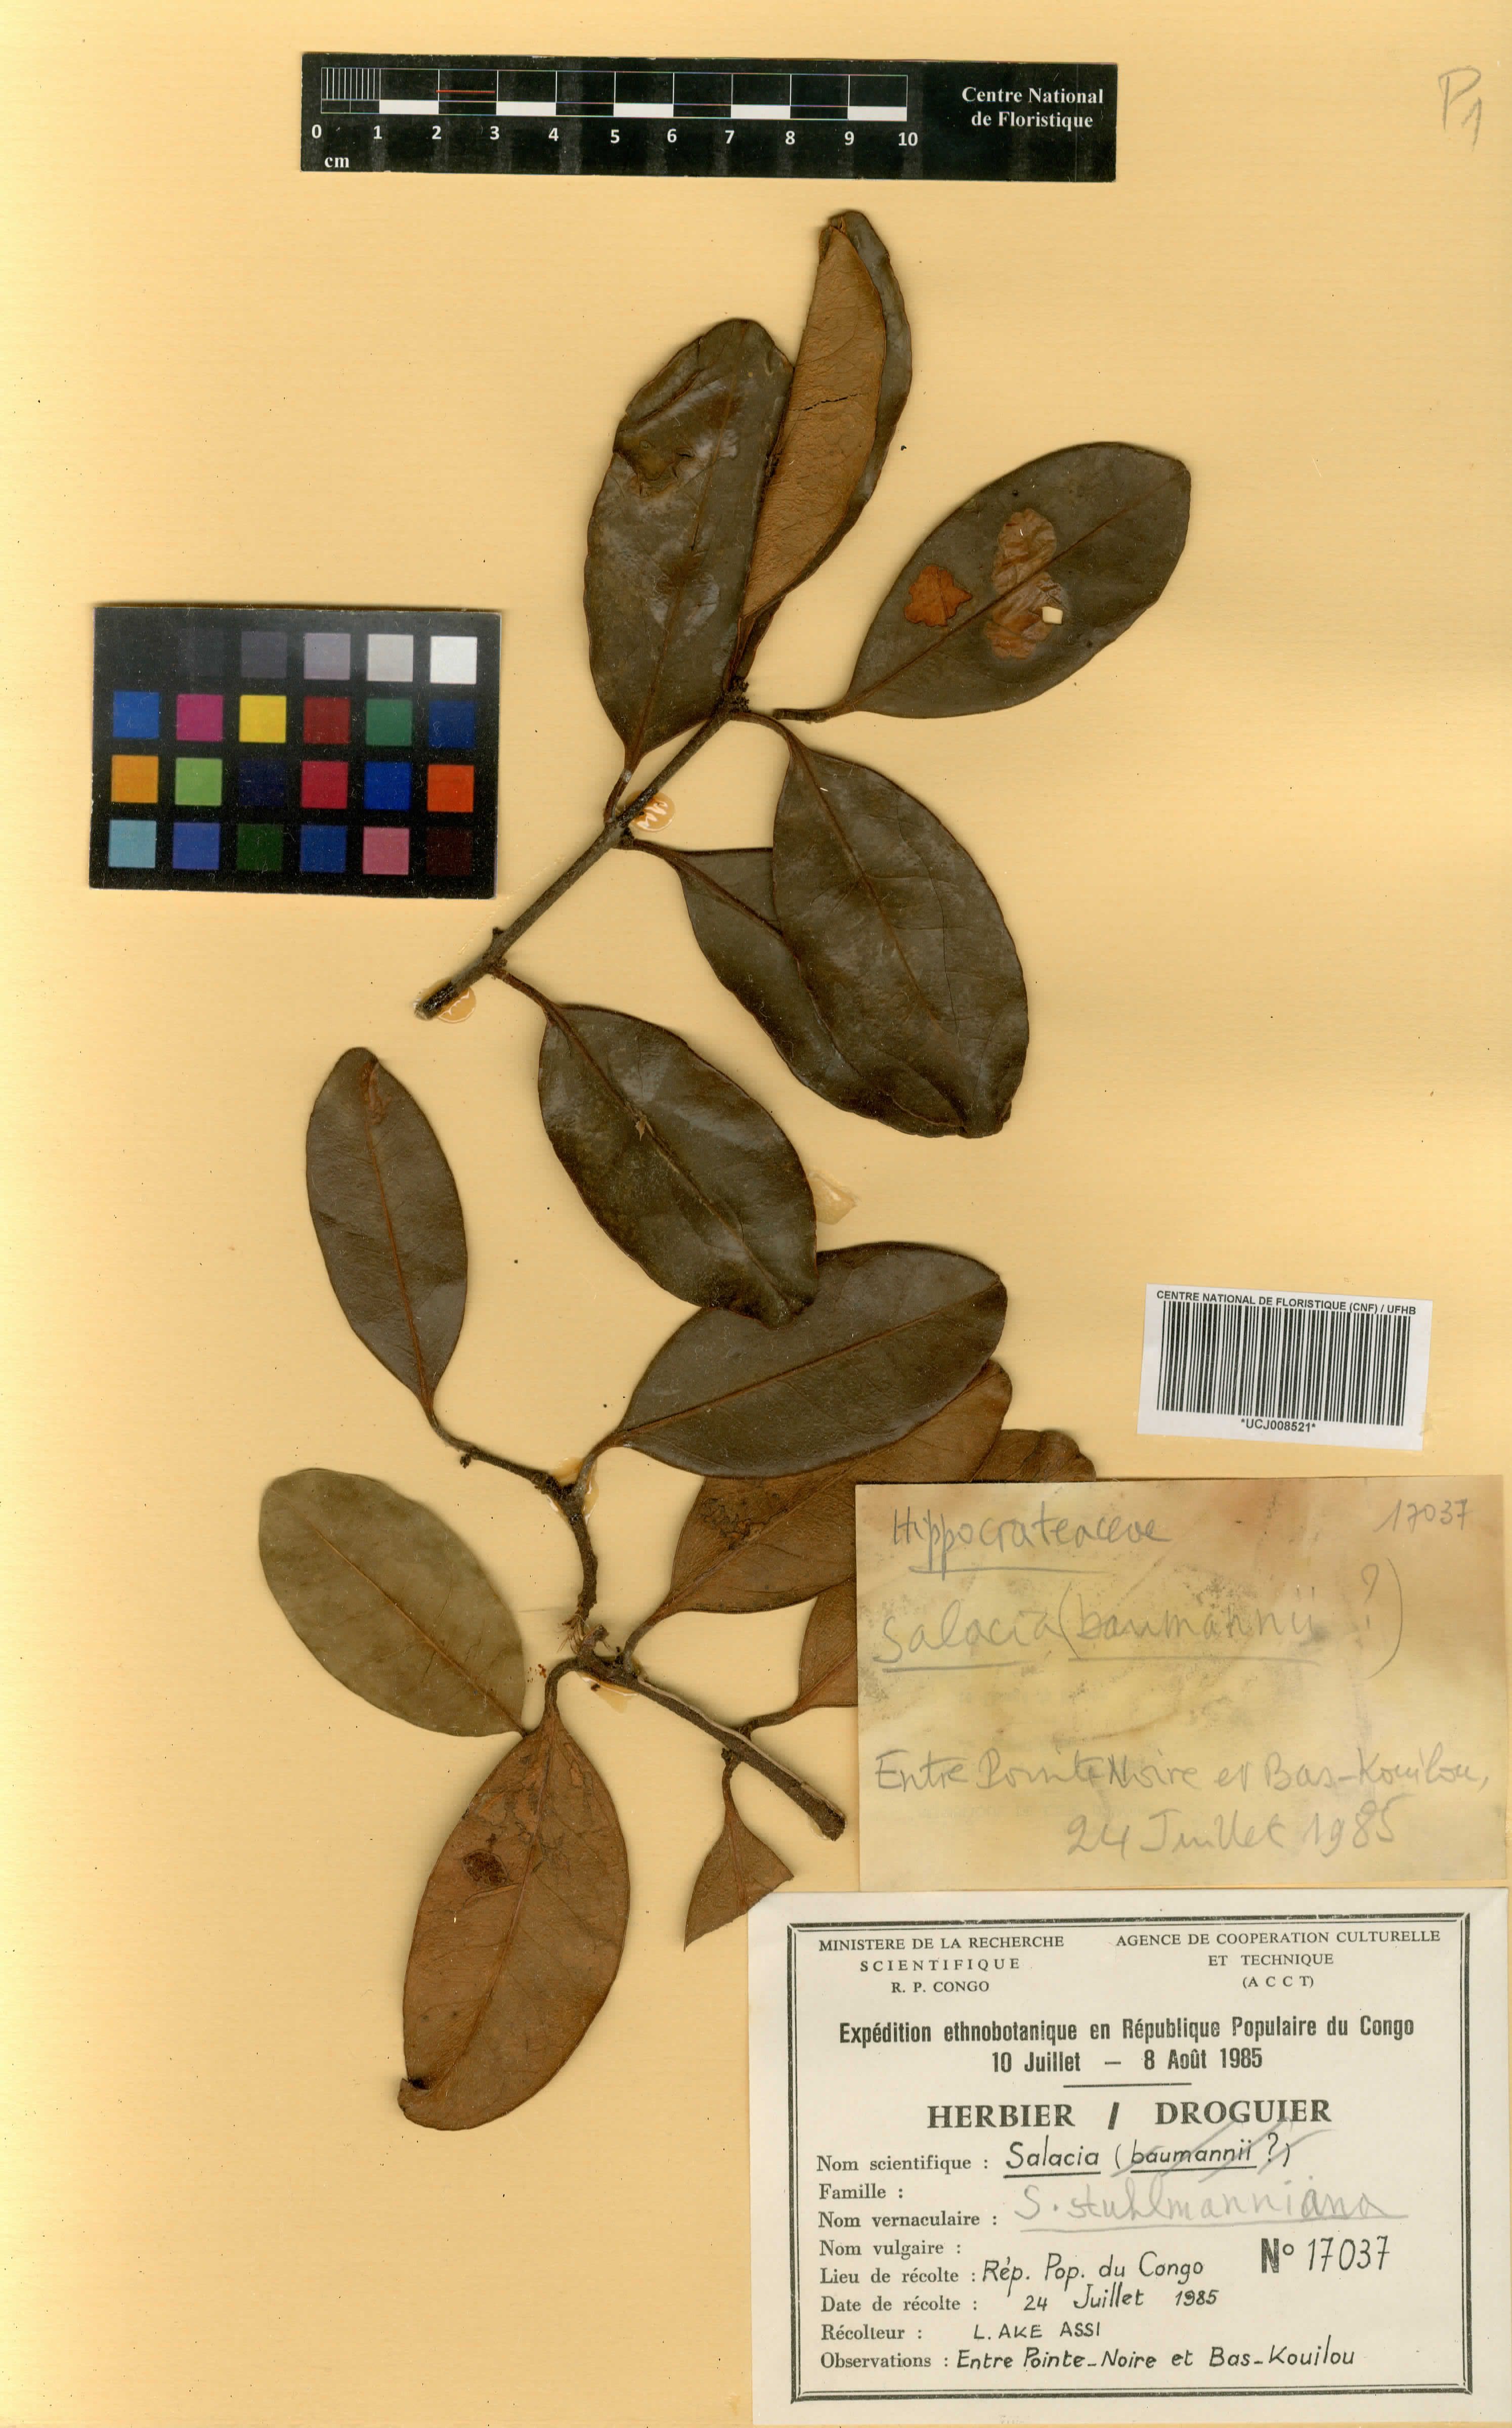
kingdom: Plantae
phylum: Tracheophyta
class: Magnoliopsida
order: Celastrales
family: Celastraceae
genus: Salacia
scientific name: Salacia stuhlmanniana
